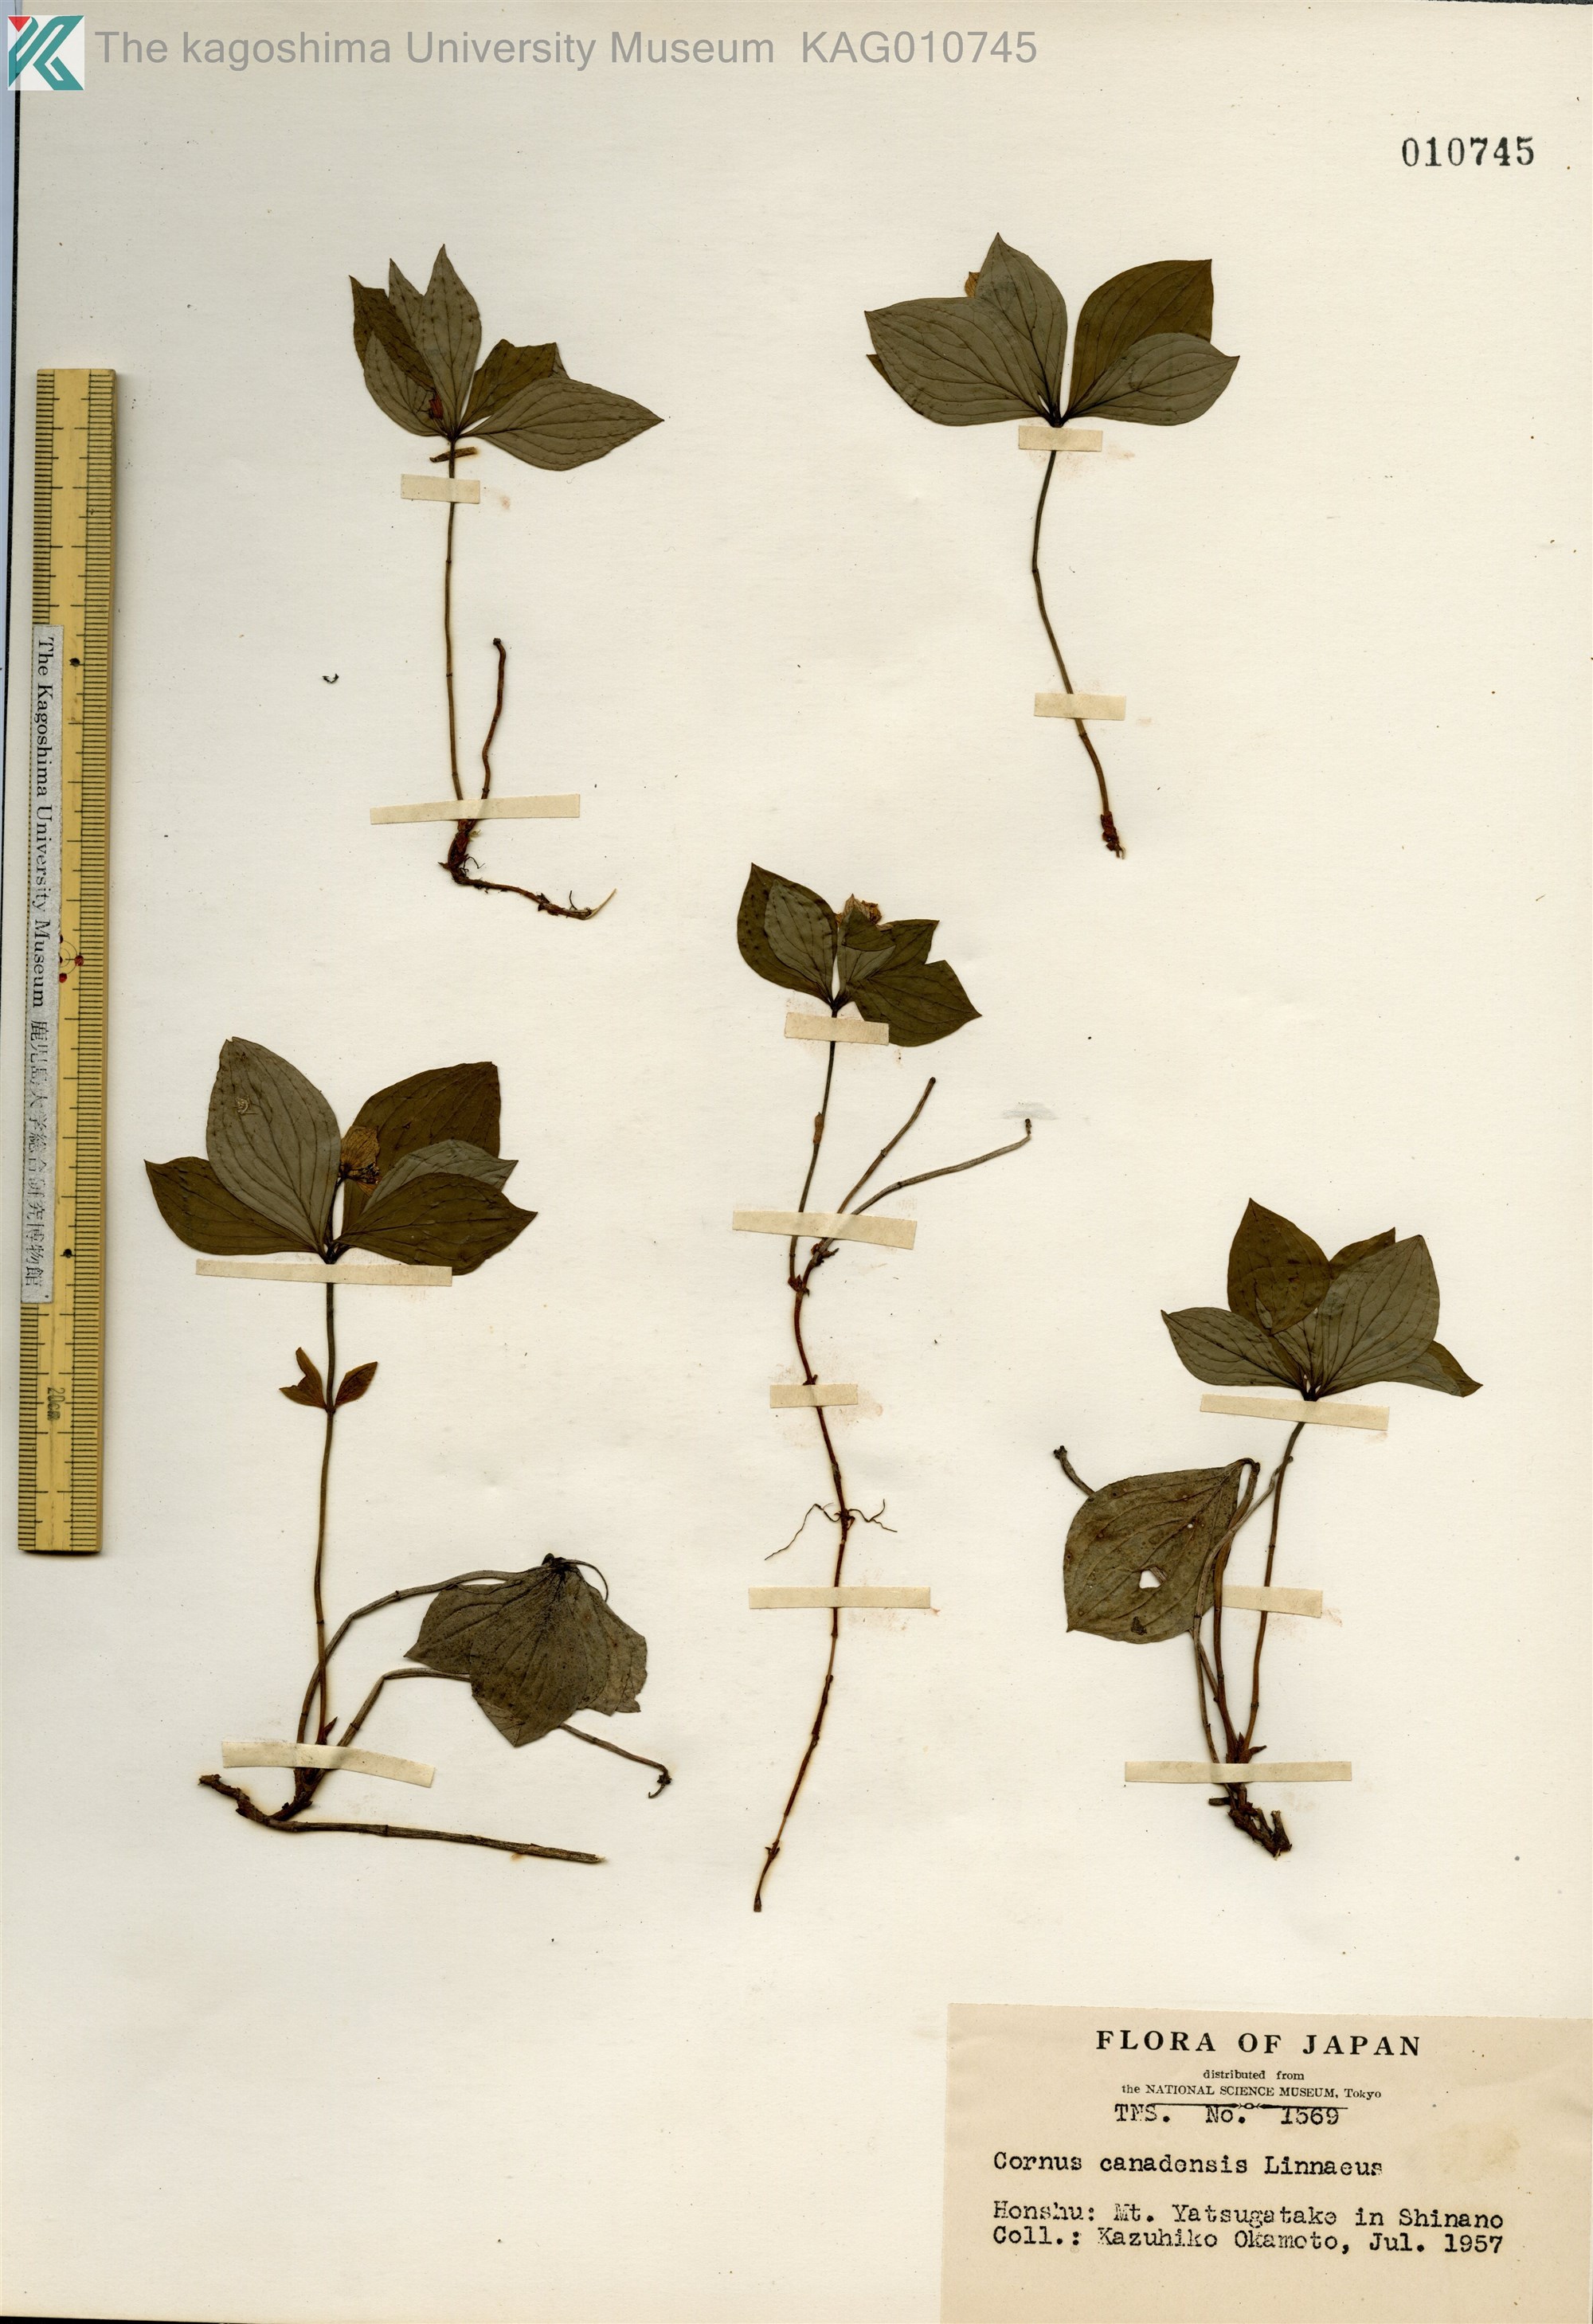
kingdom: Plantae
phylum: Tracheophyta
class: Magnoliopsida
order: Cornales
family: Cornaceae
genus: Cornus
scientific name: Cornus canadensis
